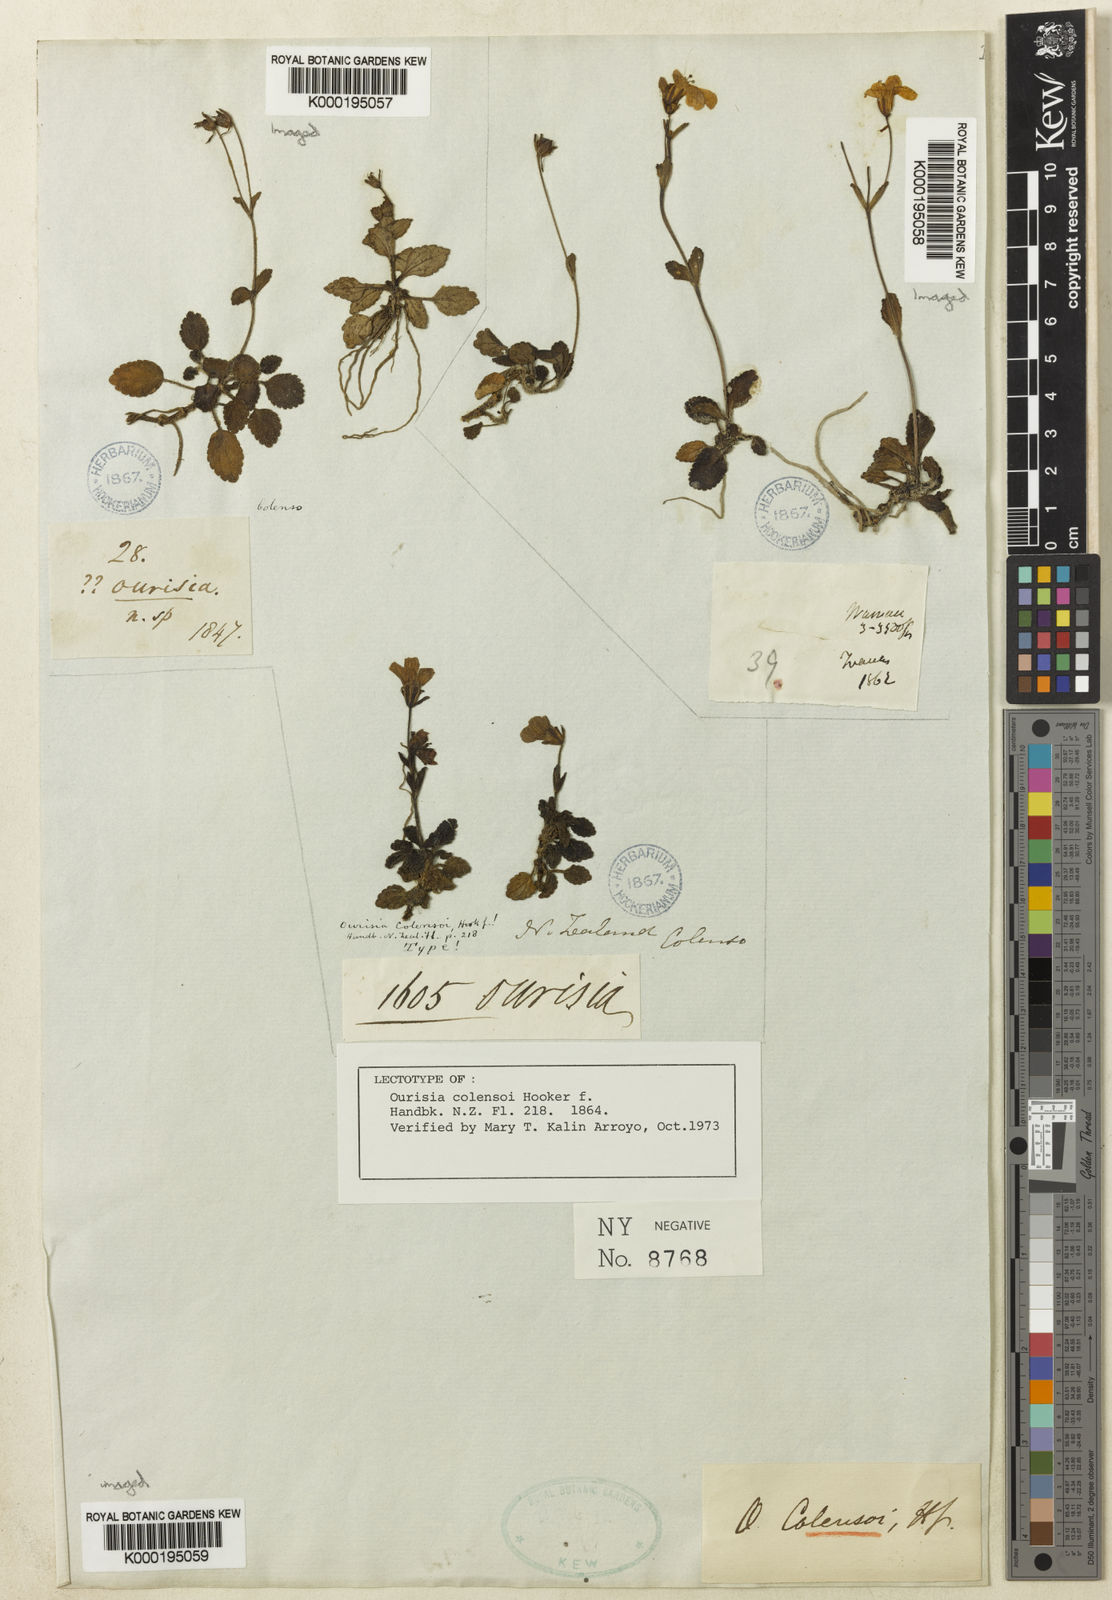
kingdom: Plantae
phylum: Tracheophyta
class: Magnoliopsida
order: Lamiales
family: Plantaginaceae
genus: Ourisia
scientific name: Ourisia macrophylla
